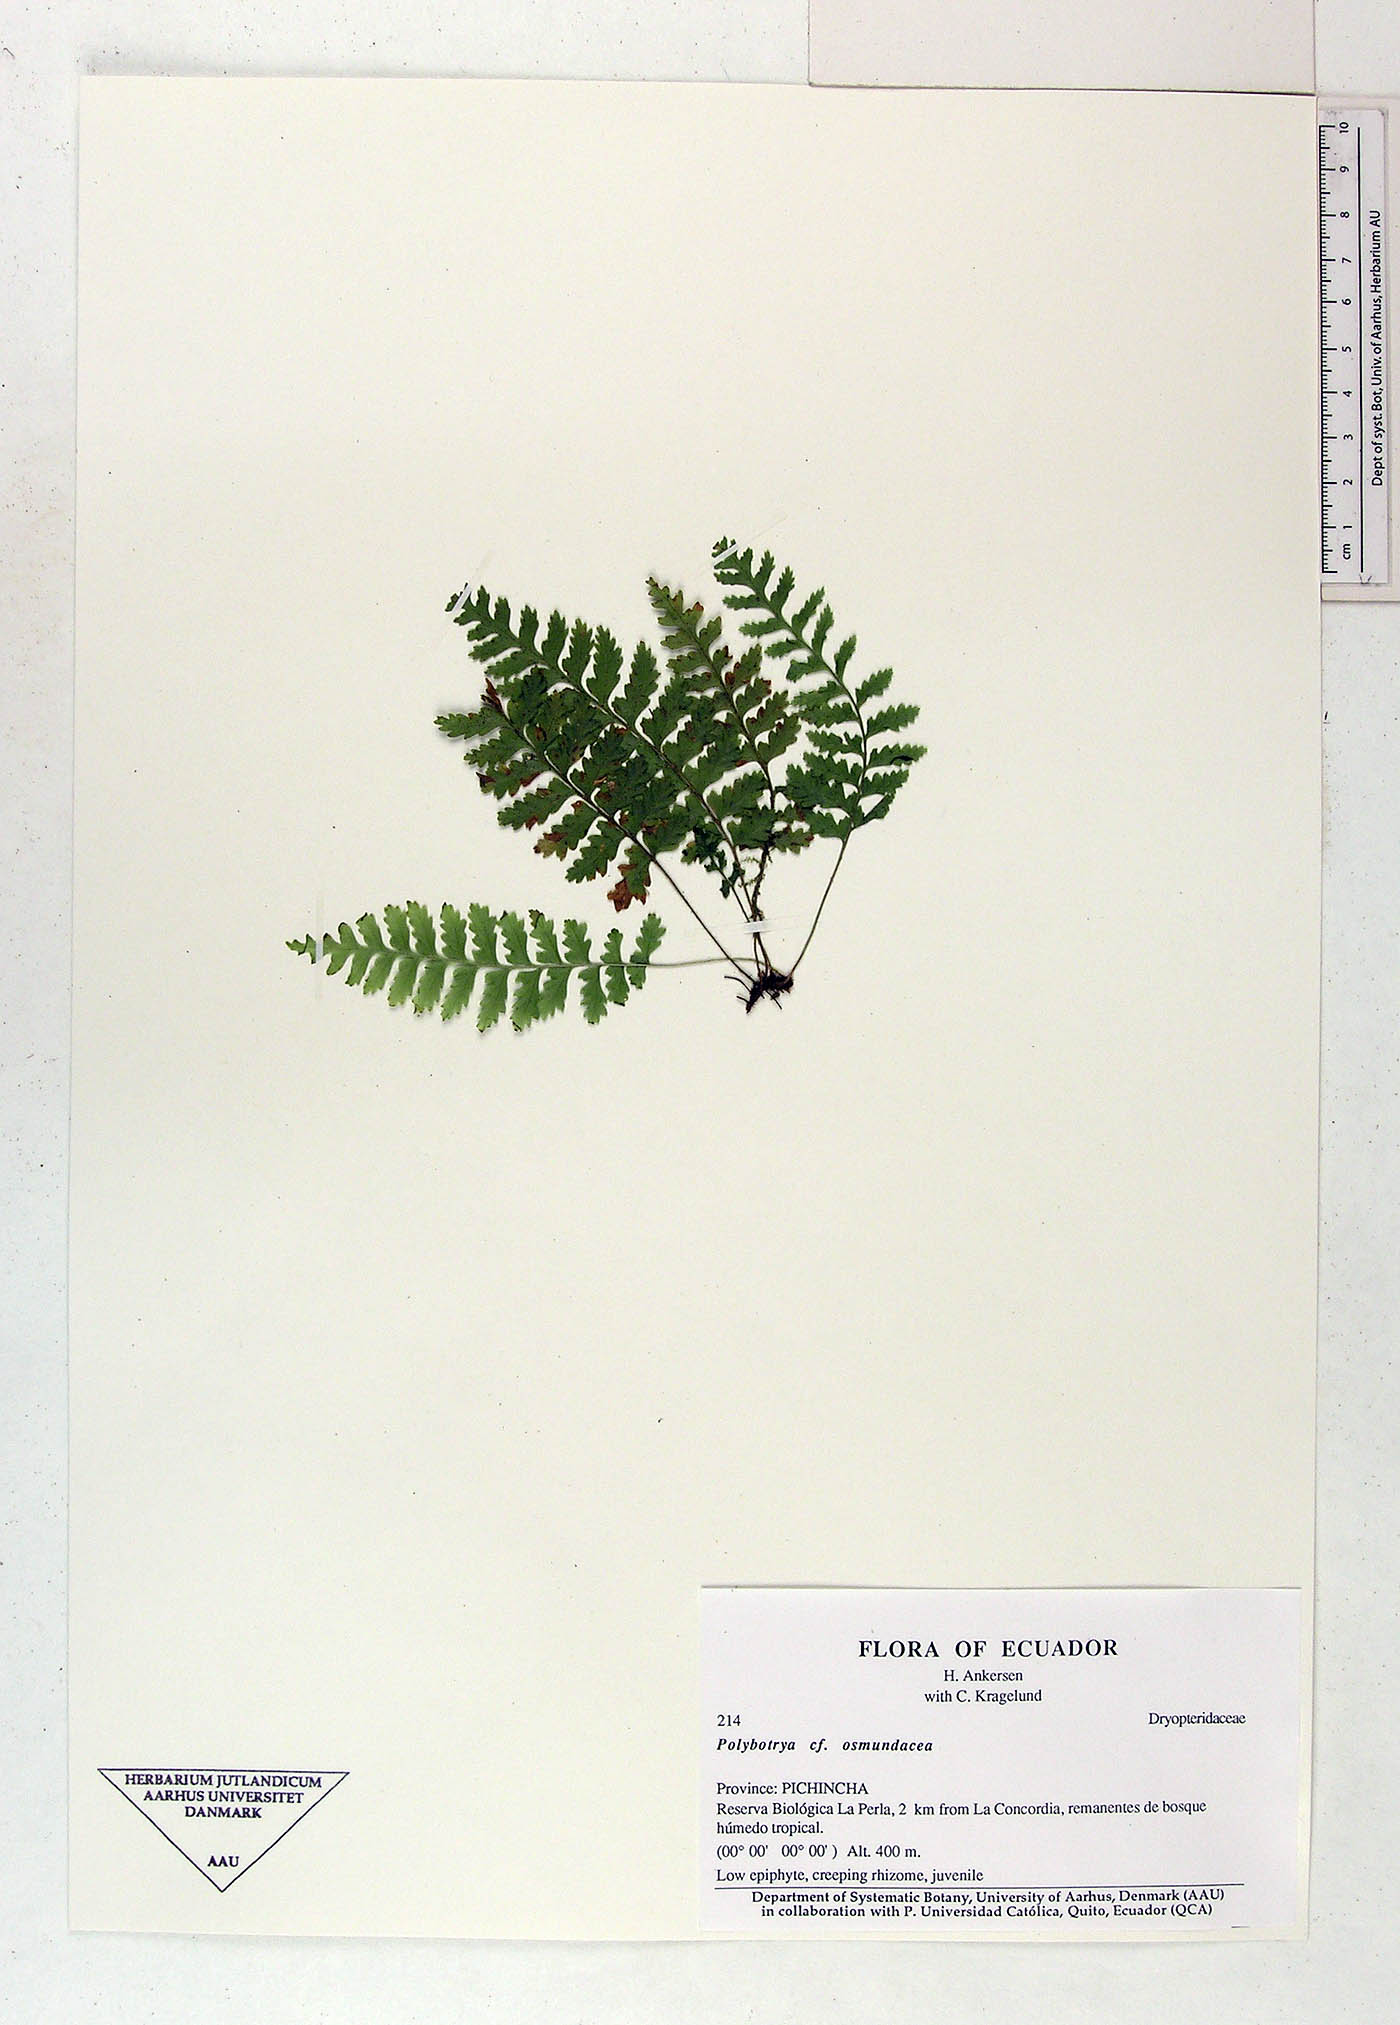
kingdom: Plantae
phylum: Tracheophyta
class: Polypodiopsida
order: Polypodiales
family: Dryopteridaceae
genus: Polybotrya
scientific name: Polybotrya osmundacea
